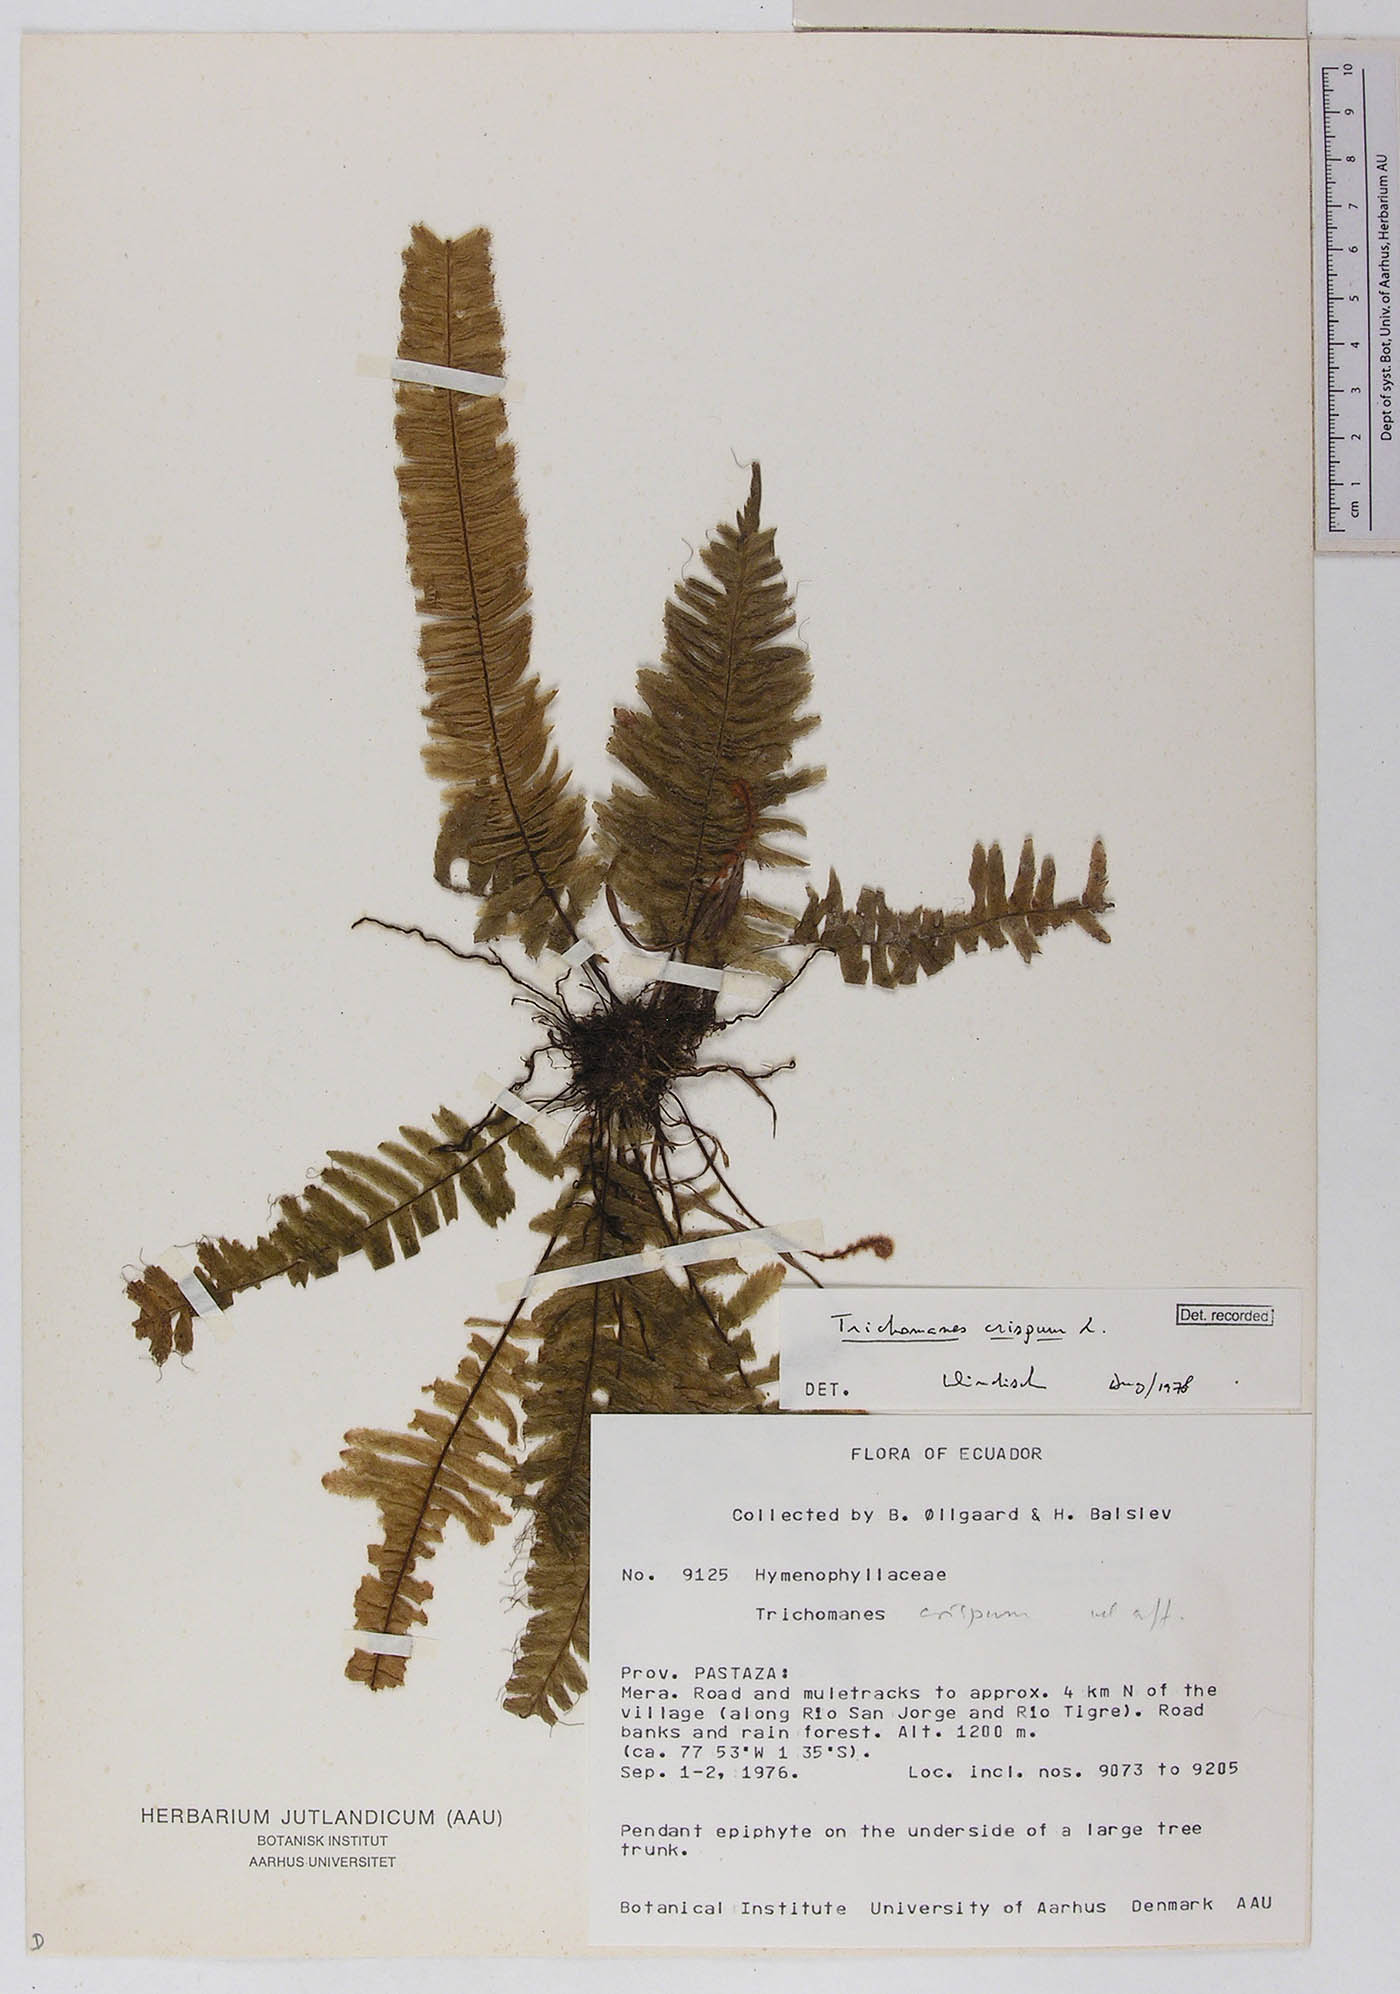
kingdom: Plantae
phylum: Tracheophyta
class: Polypodiopsida
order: Hymenophyllales
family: Hymenophyllaceae
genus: Trichomanes
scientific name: Trichomanes crispum
